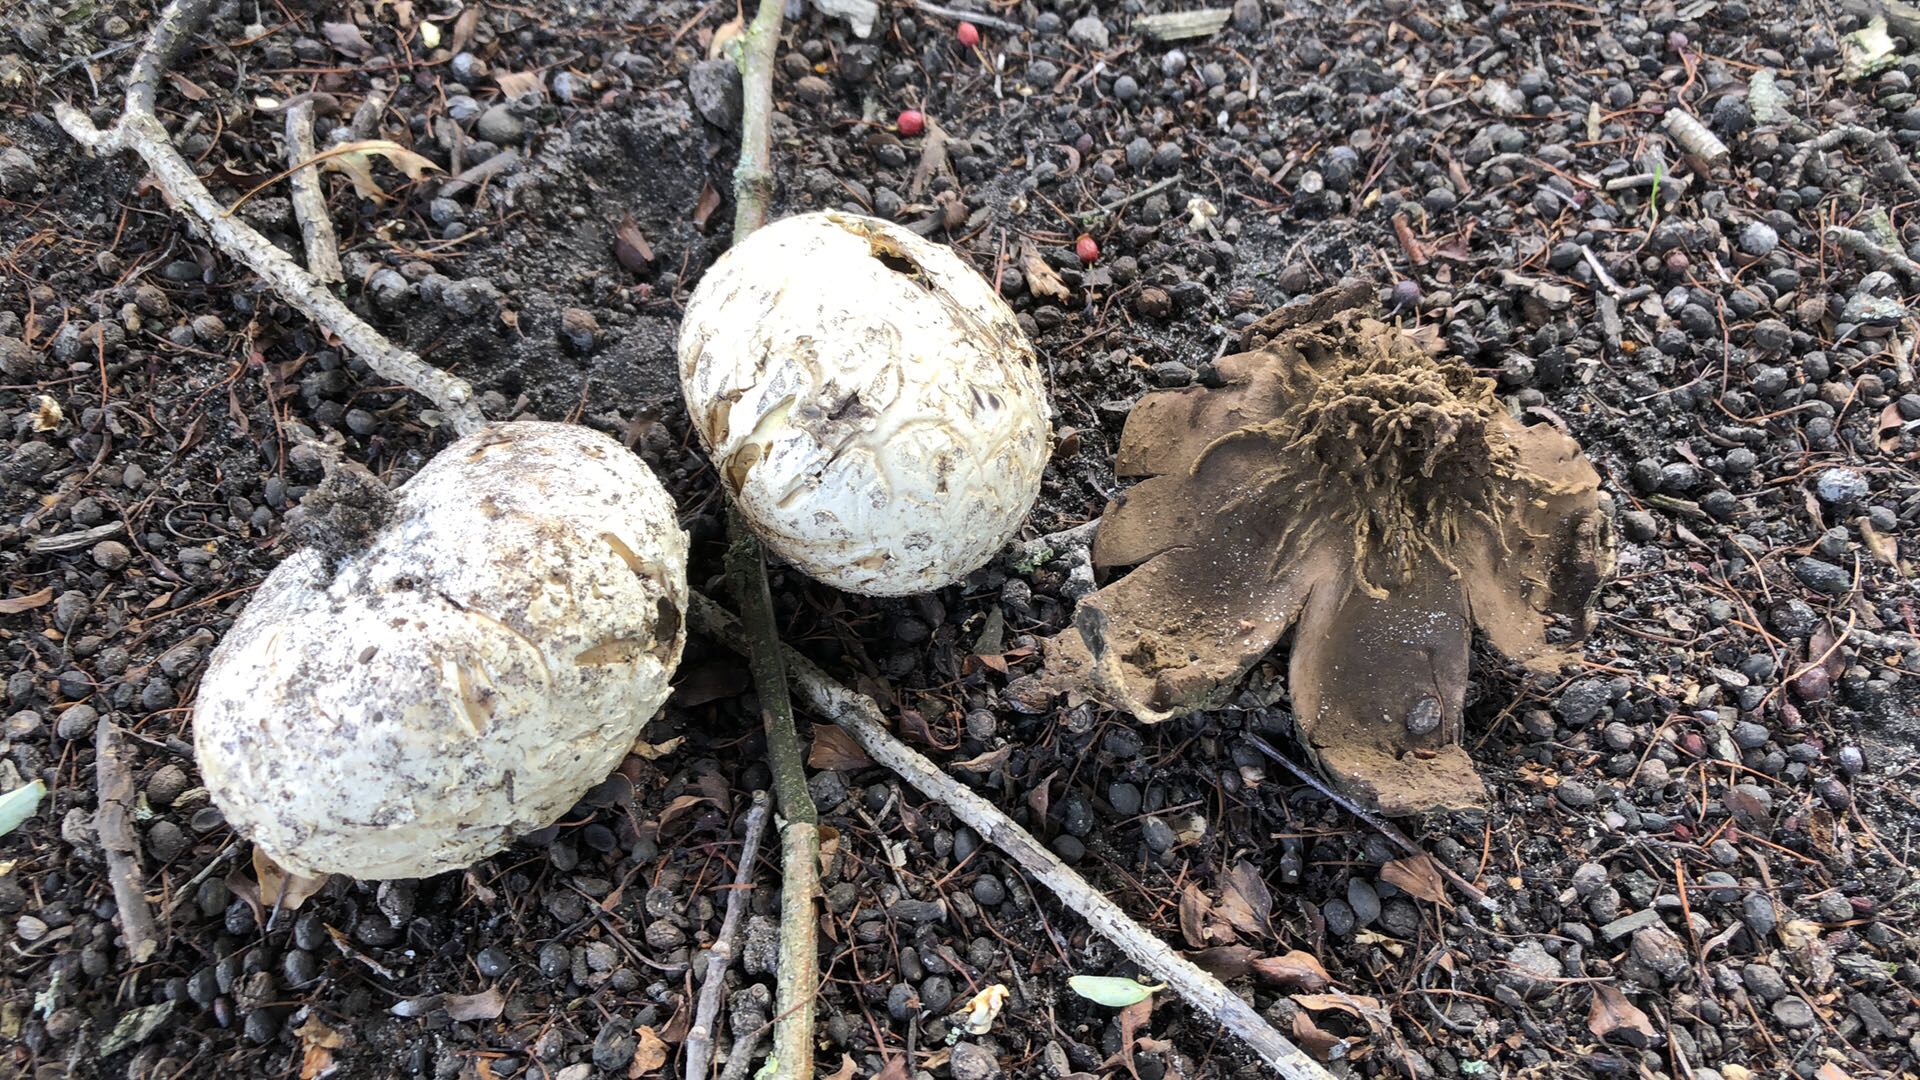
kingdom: Fungi
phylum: Basidiomycota
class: Agaricomycetes
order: Agaricales
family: Agaricaceae
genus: Mycenastrum
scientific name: Mycenastrum corium
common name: læderbold
